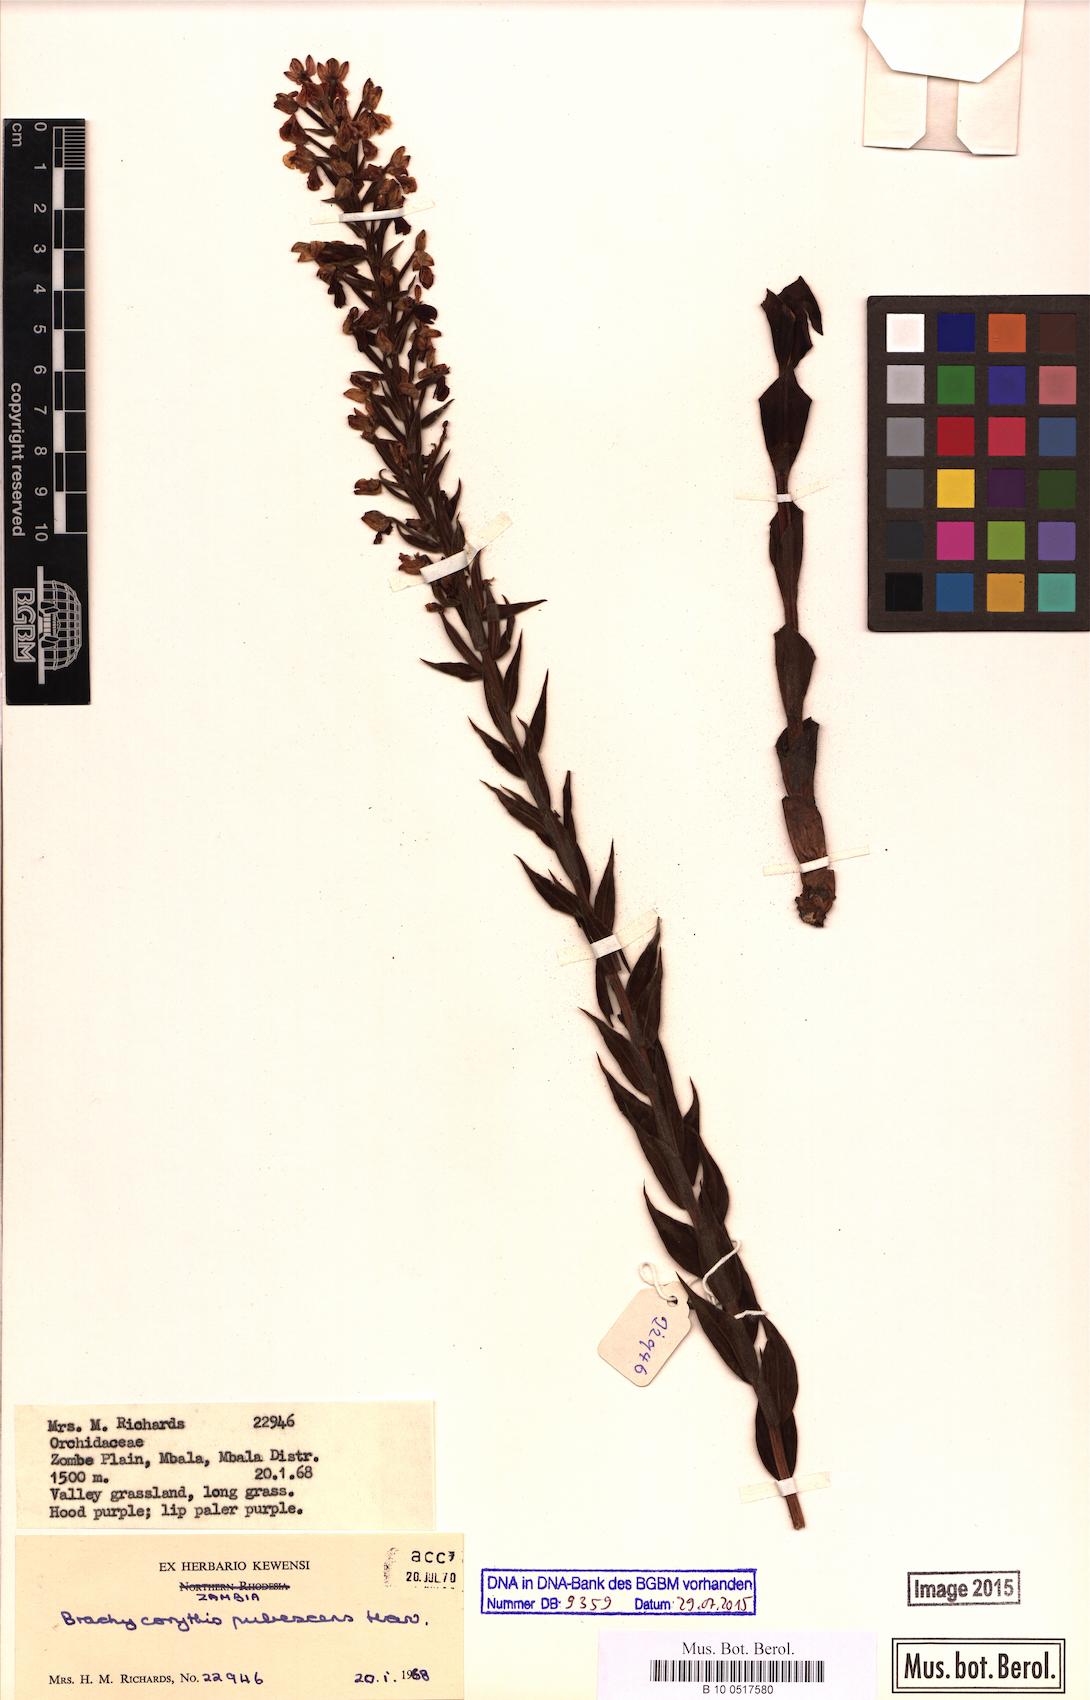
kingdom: Plantae
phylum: Tracheophyta
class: Liliopsida
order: Asparagales
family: Orchidaceae
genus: Brachycorythis
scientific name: Brachycorythis pubescens
